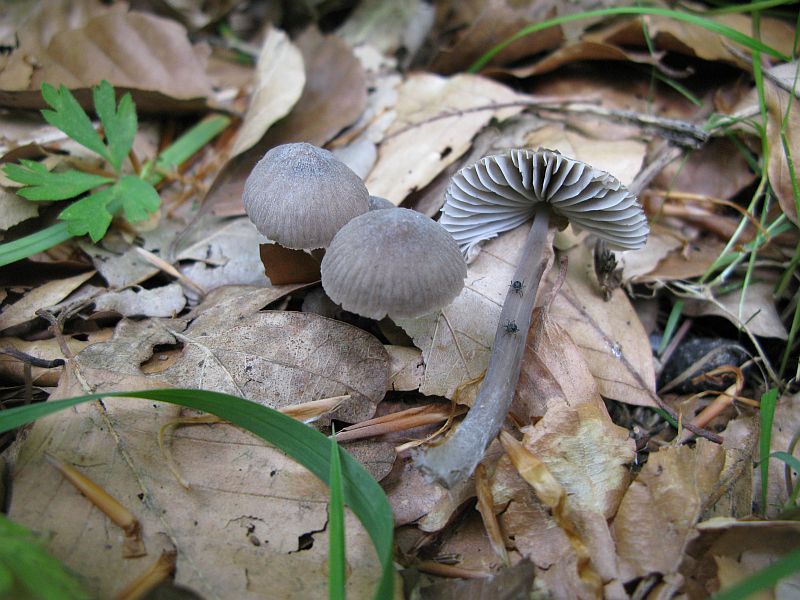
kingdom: Fungi
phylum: Basidiomycota
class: Agaricomycetes
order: Agaricales
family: Mycenaceae
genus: Mycena
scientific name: Mycena abramsii
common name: sommer-huesvamp
